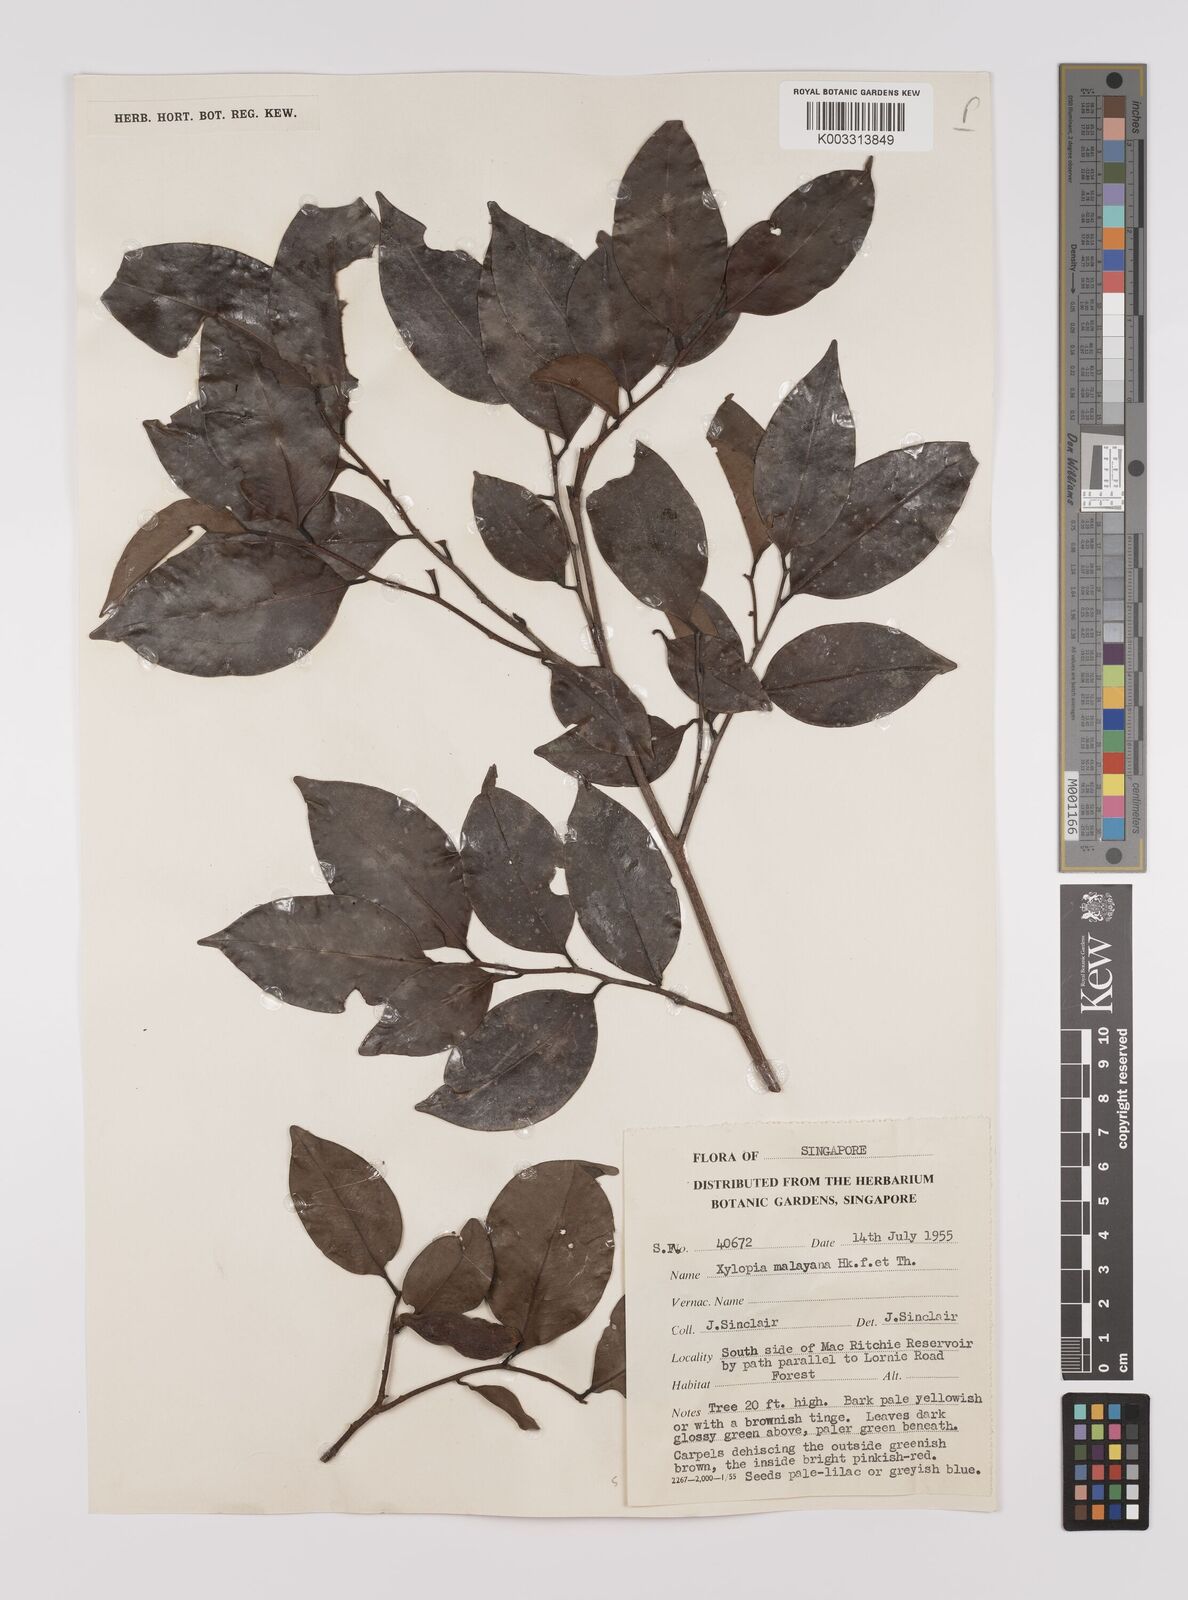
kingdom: Plantae
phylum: Tracheophyta
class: Magnoliopsida
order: Magnoliales
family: Annonaceae
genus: Xylopia
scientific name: Xylopia malayana
